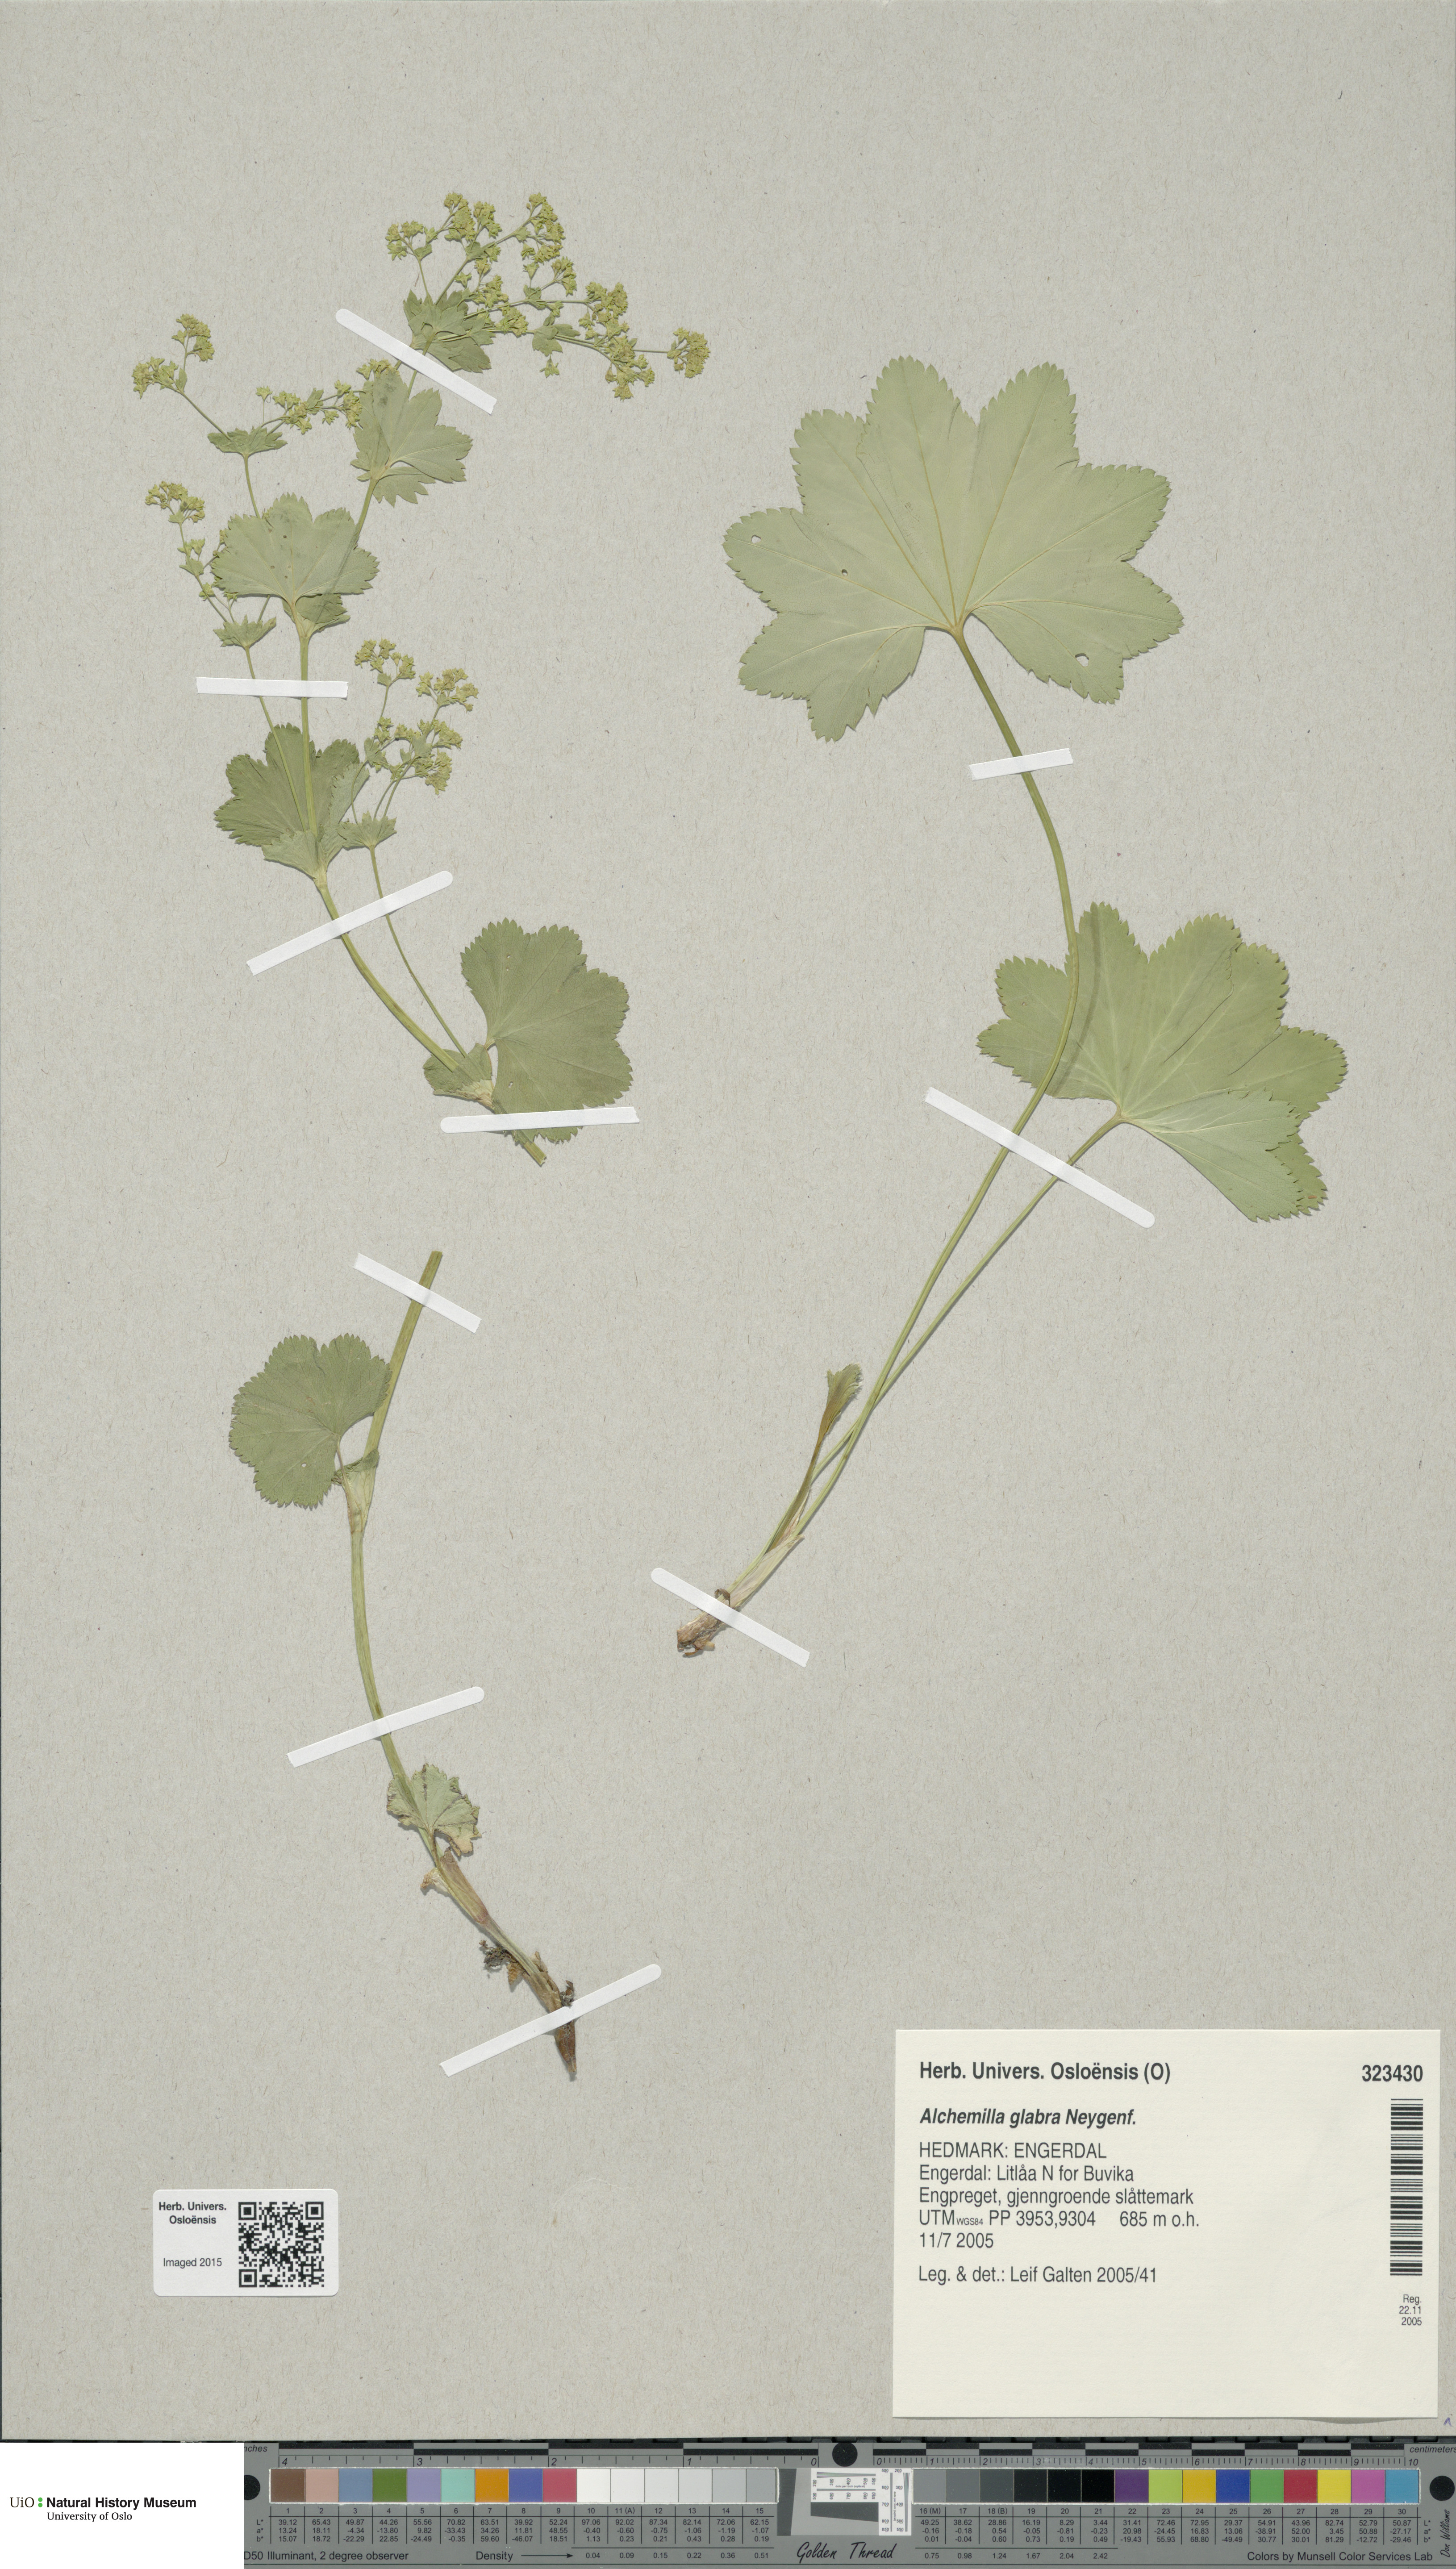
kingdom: Plantae
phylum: Tracheophyta
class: Magnoliopsida
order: Rosales
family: Rosaceae
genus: Alchemilla
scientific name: Alchemilla glabra
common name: Smooth lady's-mantle
